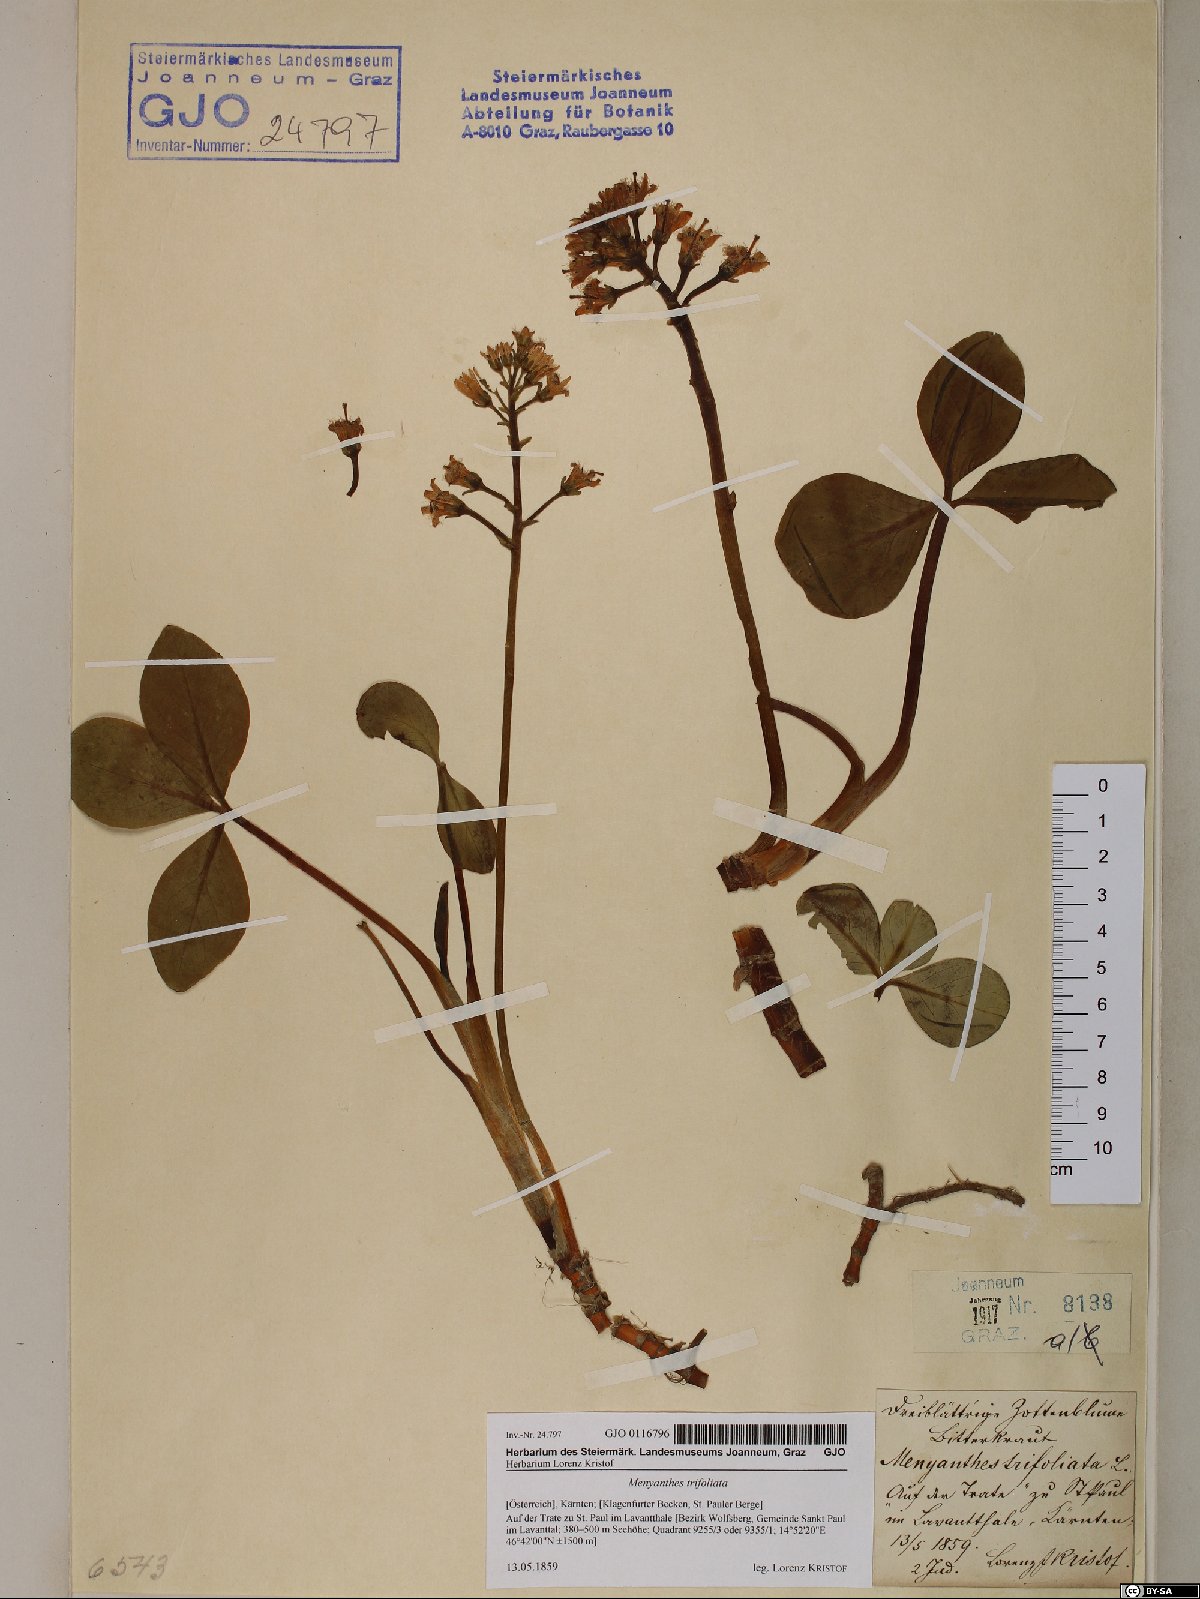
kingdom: Plantae
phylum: Tracheophyta
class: Magnoliopsida
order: Asterales
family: Menyanthaceae
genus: Menyanthes
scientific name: Menyanthes trifoliata
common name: Bogbean
